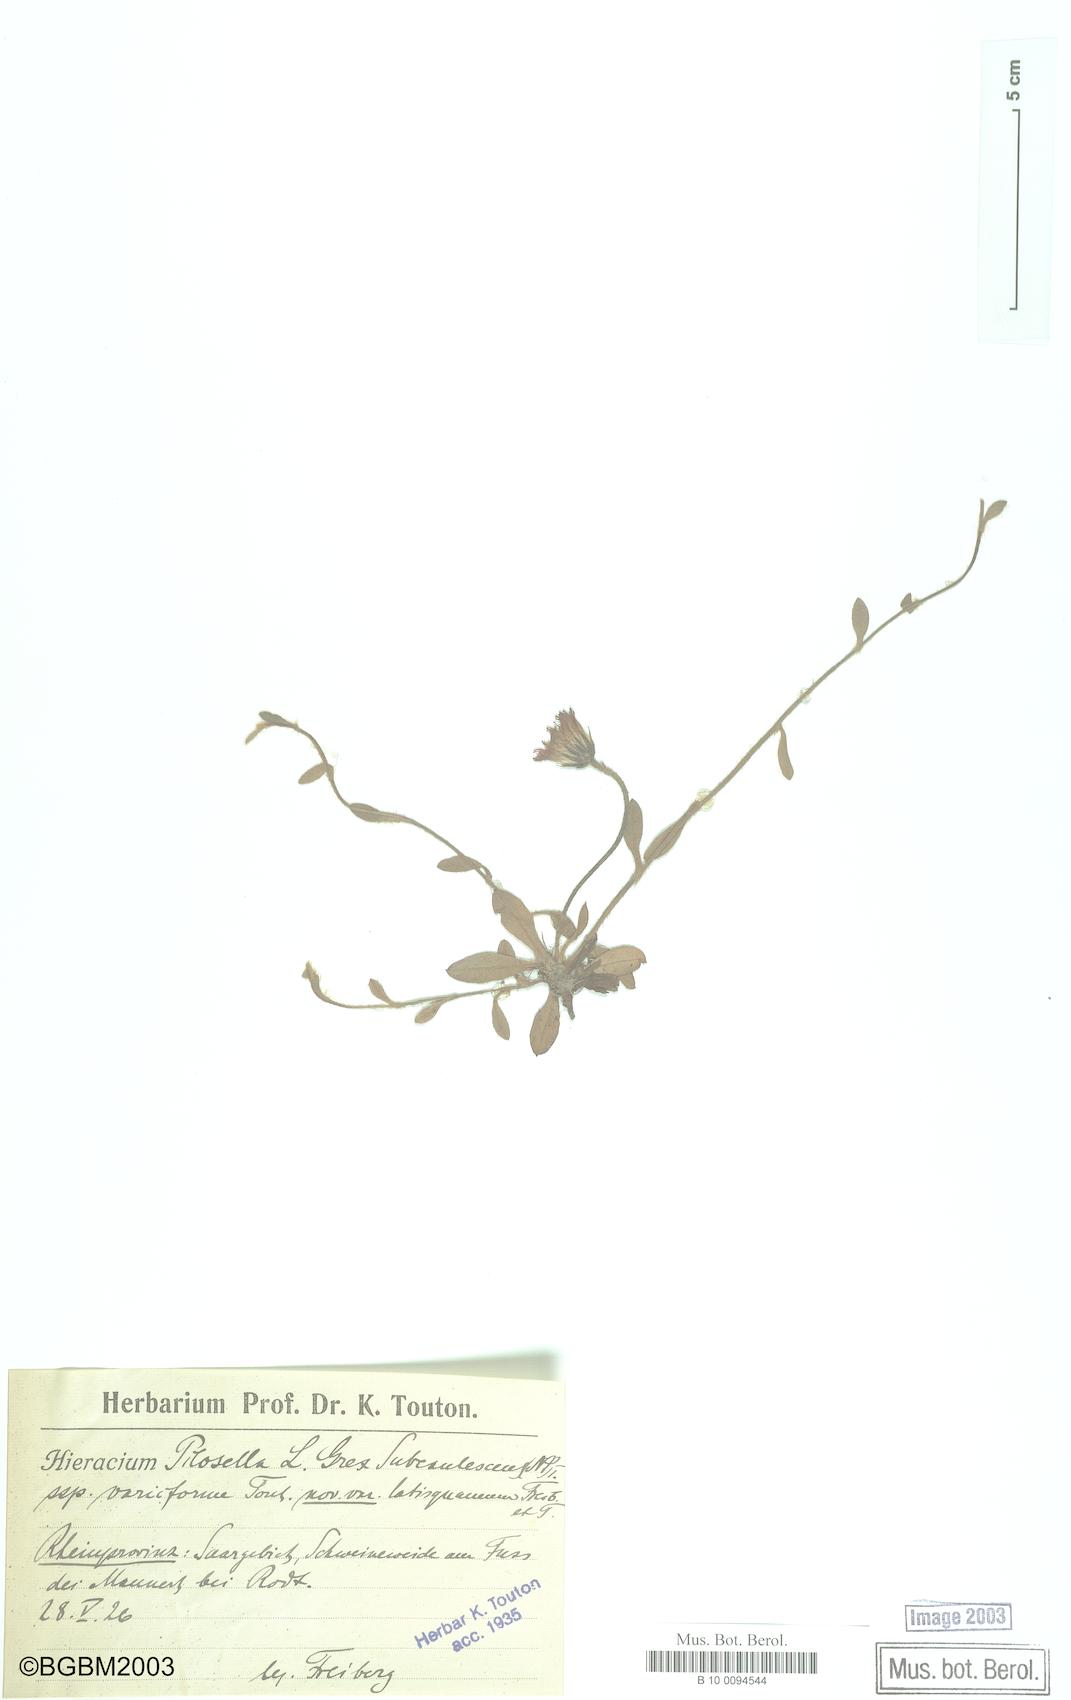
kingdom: Plantae
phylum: Tracheophyta
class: Magnoliopsida
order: Asterales
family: Asteraceae
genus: Pilosella
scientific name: Pilosella officinarum
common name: Mouse-ear hawkweed
